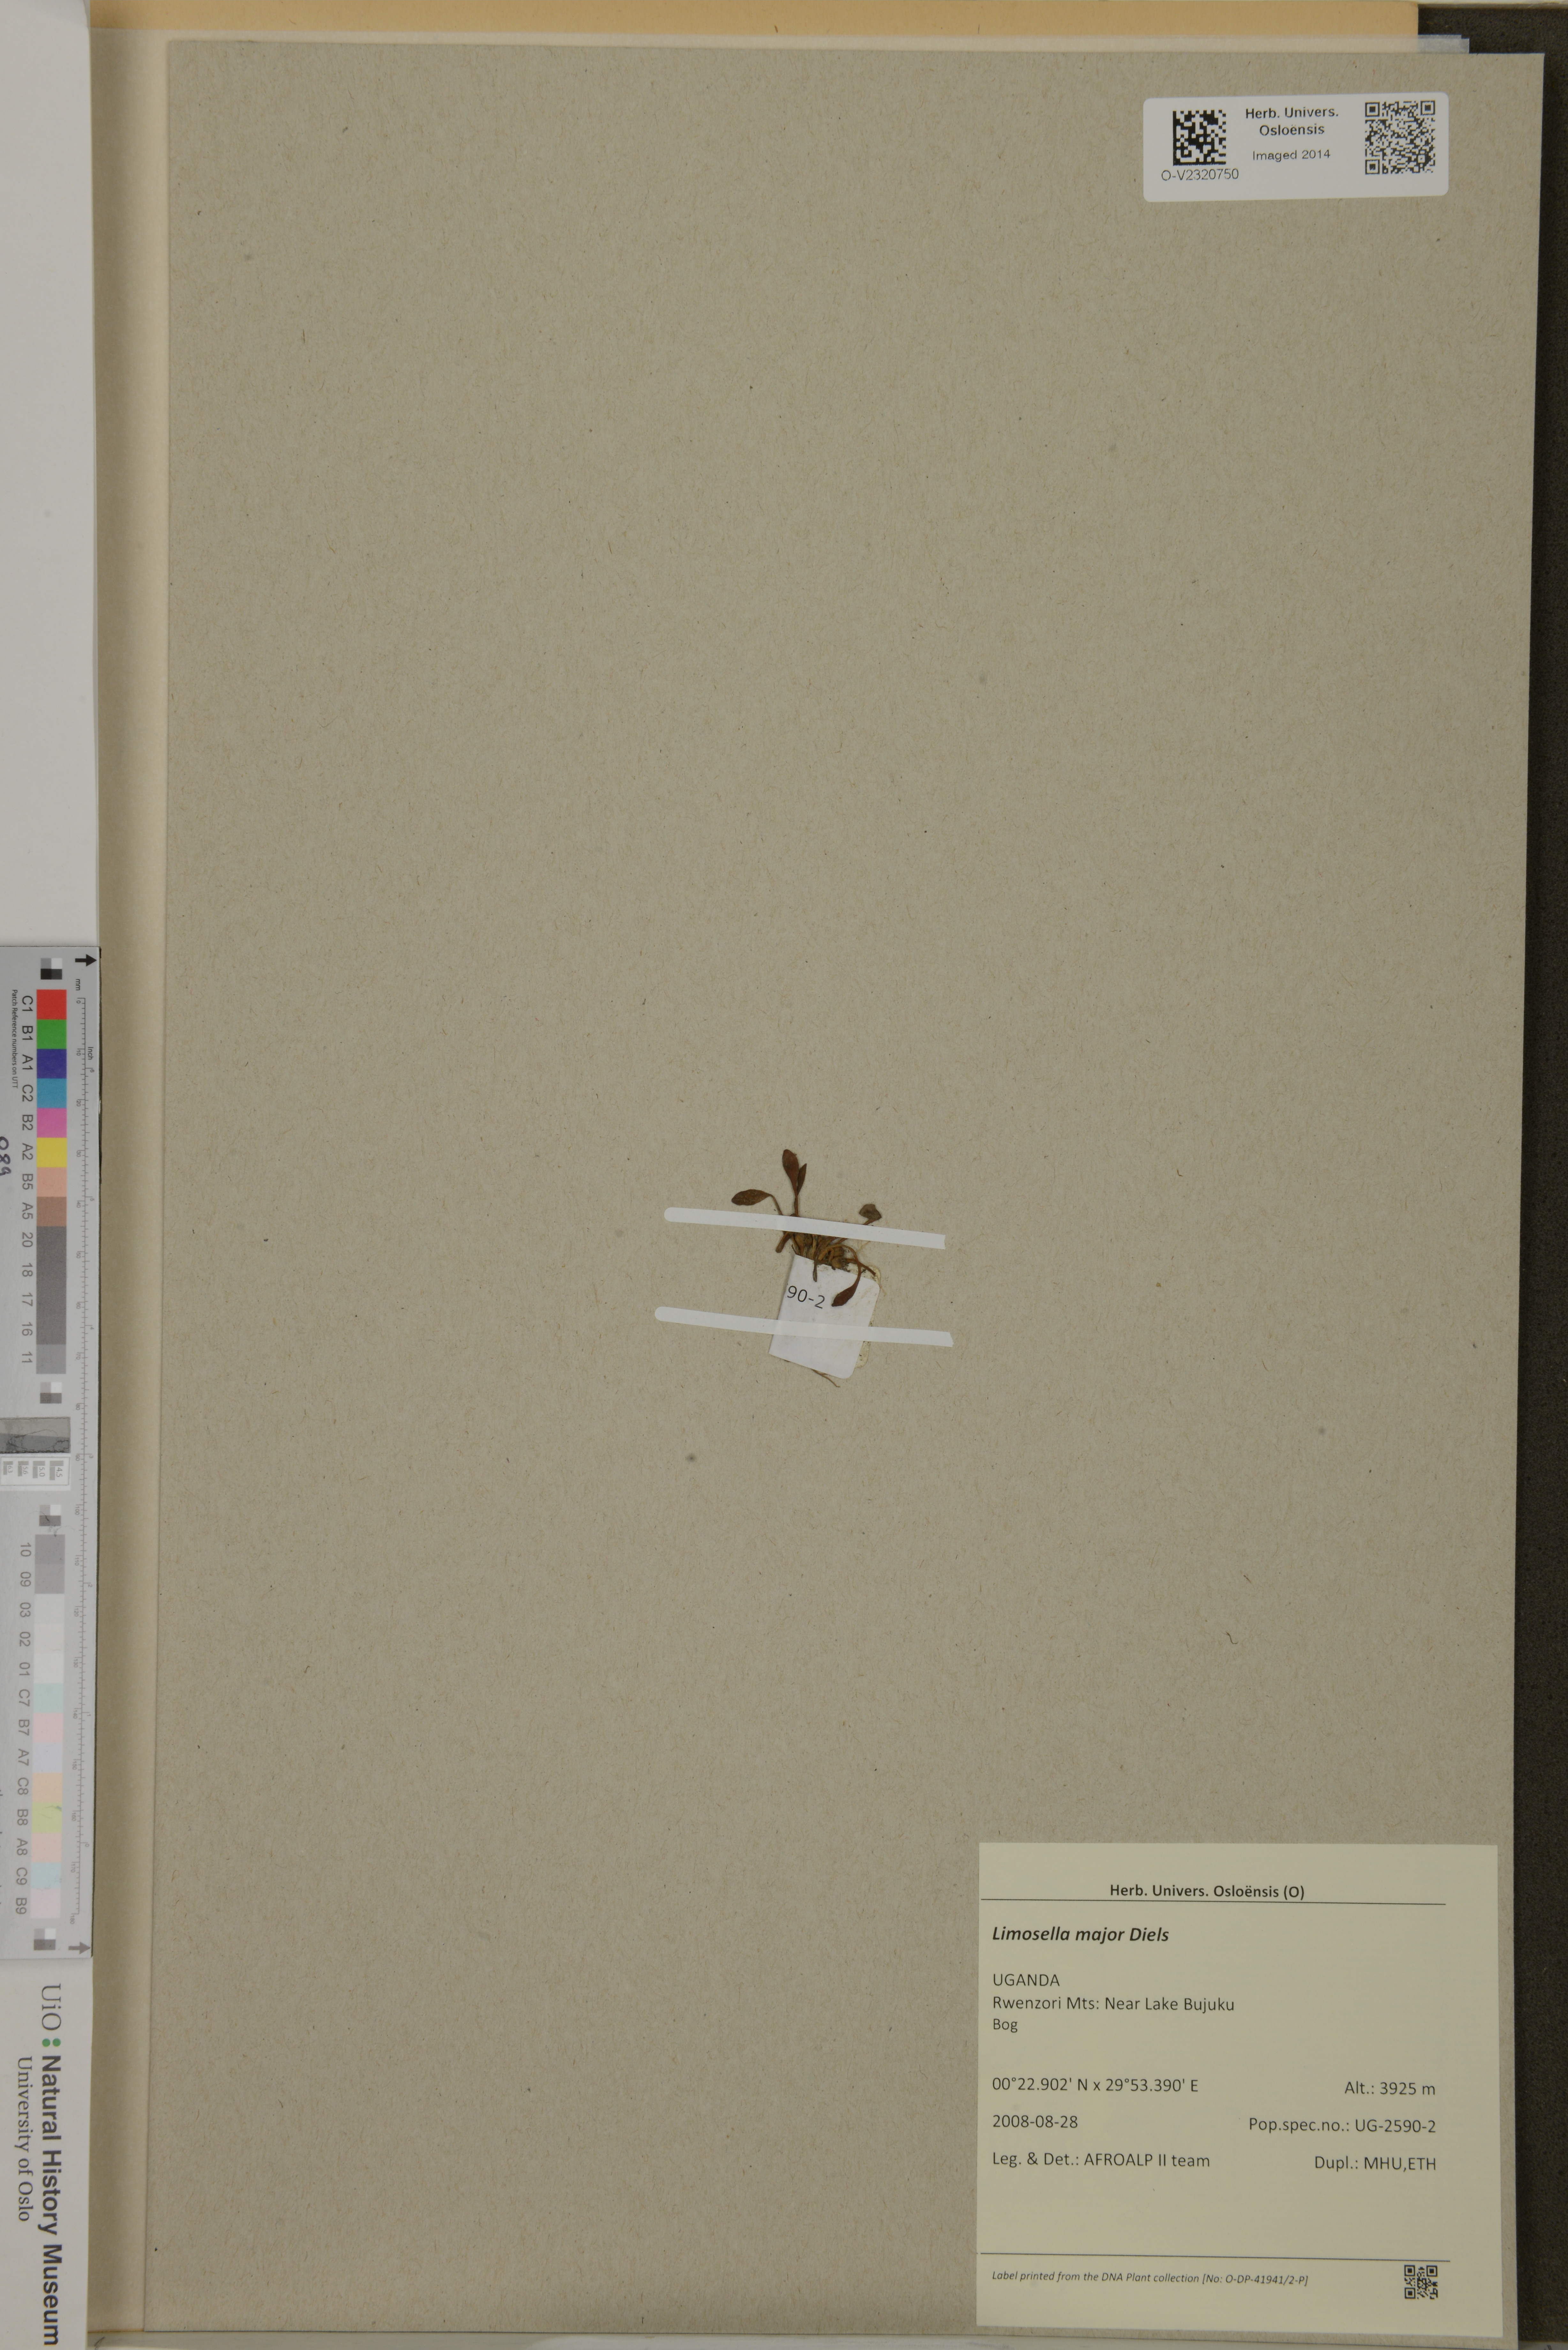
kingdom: Plantae
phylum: Tracheophyta
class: Magnoliopsida
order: Lamiales
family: Scrophulariaceae
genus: Limosella
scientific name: Limosella major
